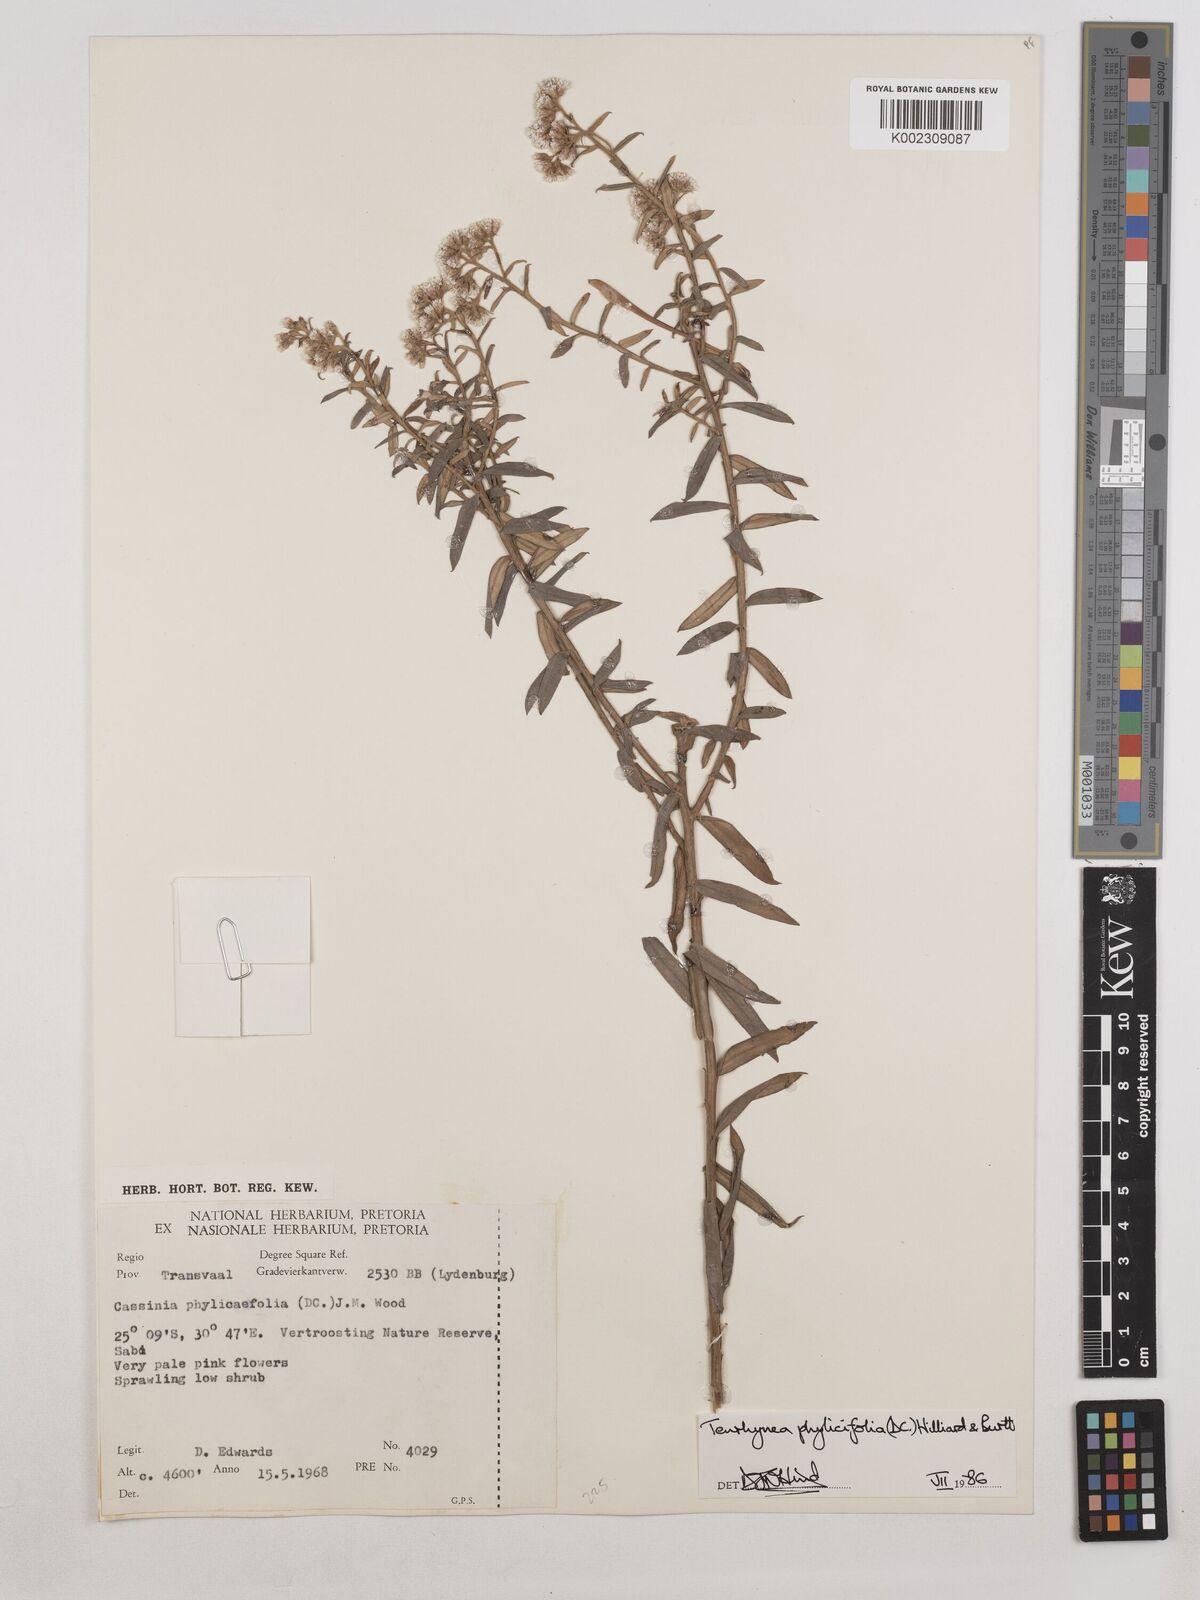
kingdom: Plantae
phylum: Tracheophyta
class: Magnoliopsida
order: Asterales
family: Asteraceae
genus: Tenrhynea
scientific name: Tenrhynea phylicifolia
